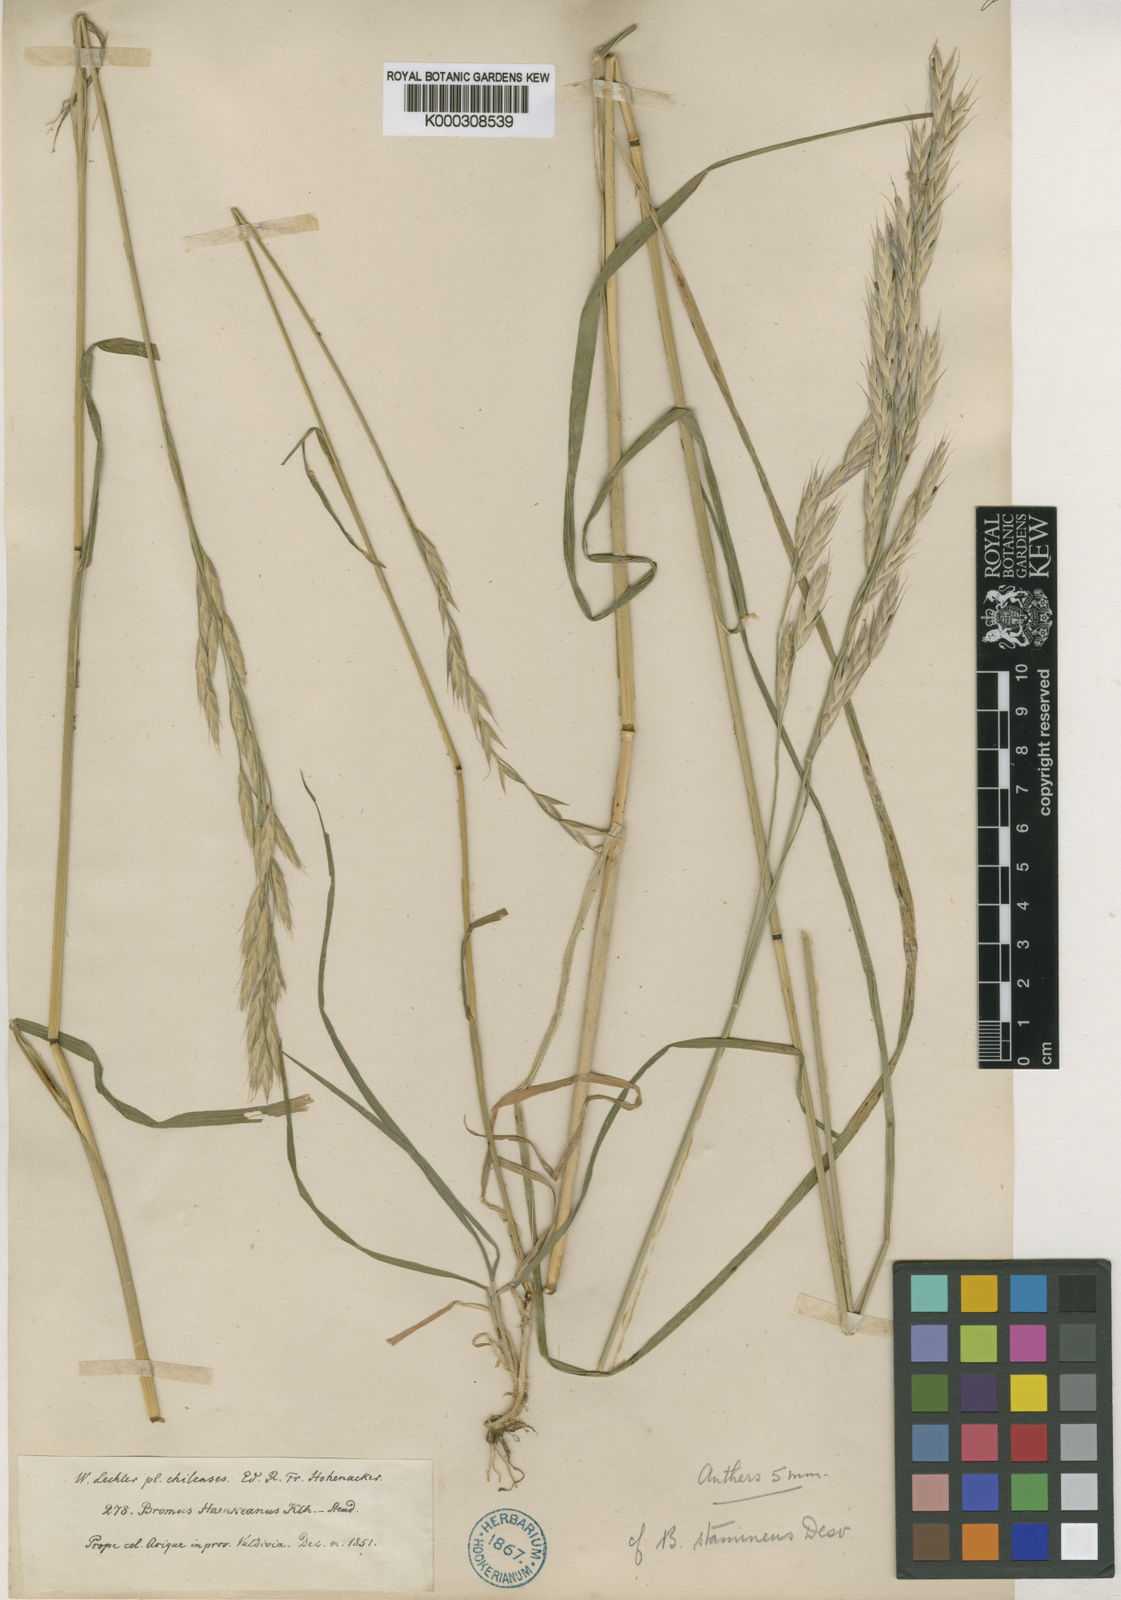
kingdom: Plantae
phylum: Tracheophyta
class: Liliopsida
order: Poales
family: Poaceae
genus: Bromus
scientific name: Bromus cebadilla
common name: Southern brome
